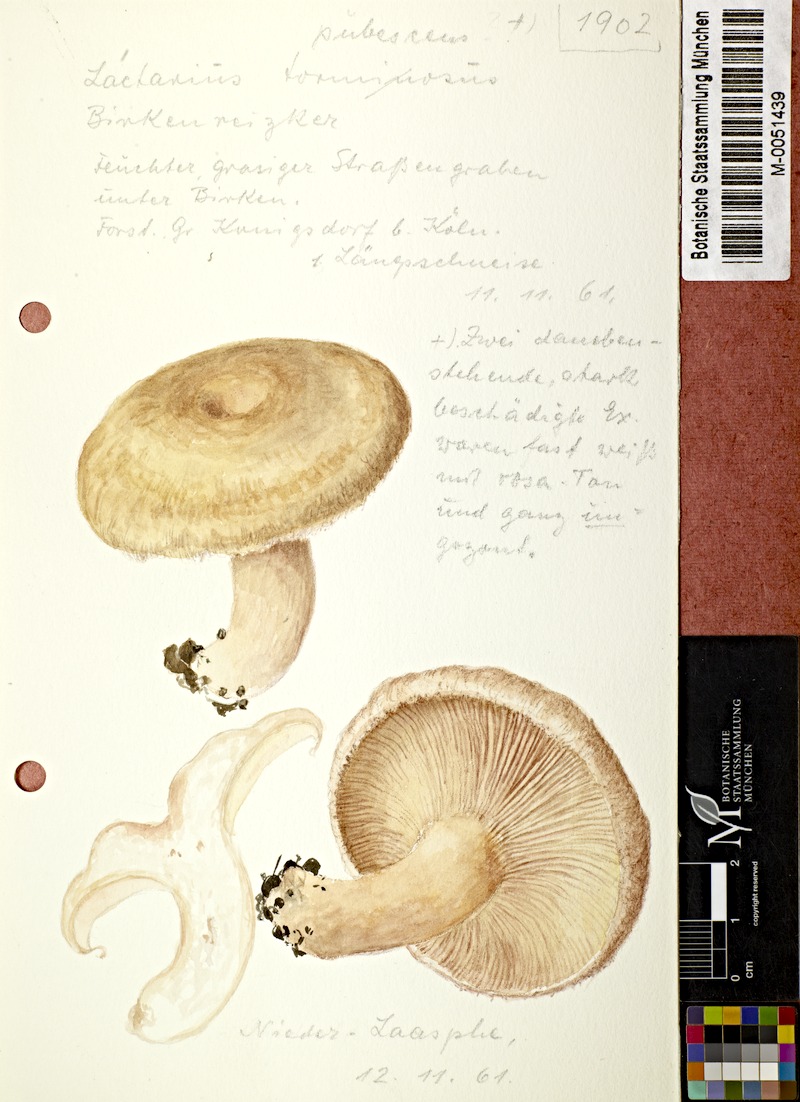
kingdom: Fungi
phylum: Basidiomycota
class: Agaricomycetes
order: Russulales
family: Russulaceae
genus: Lactarius
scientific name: Lactarius pubescens
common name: Bearded milkcap
